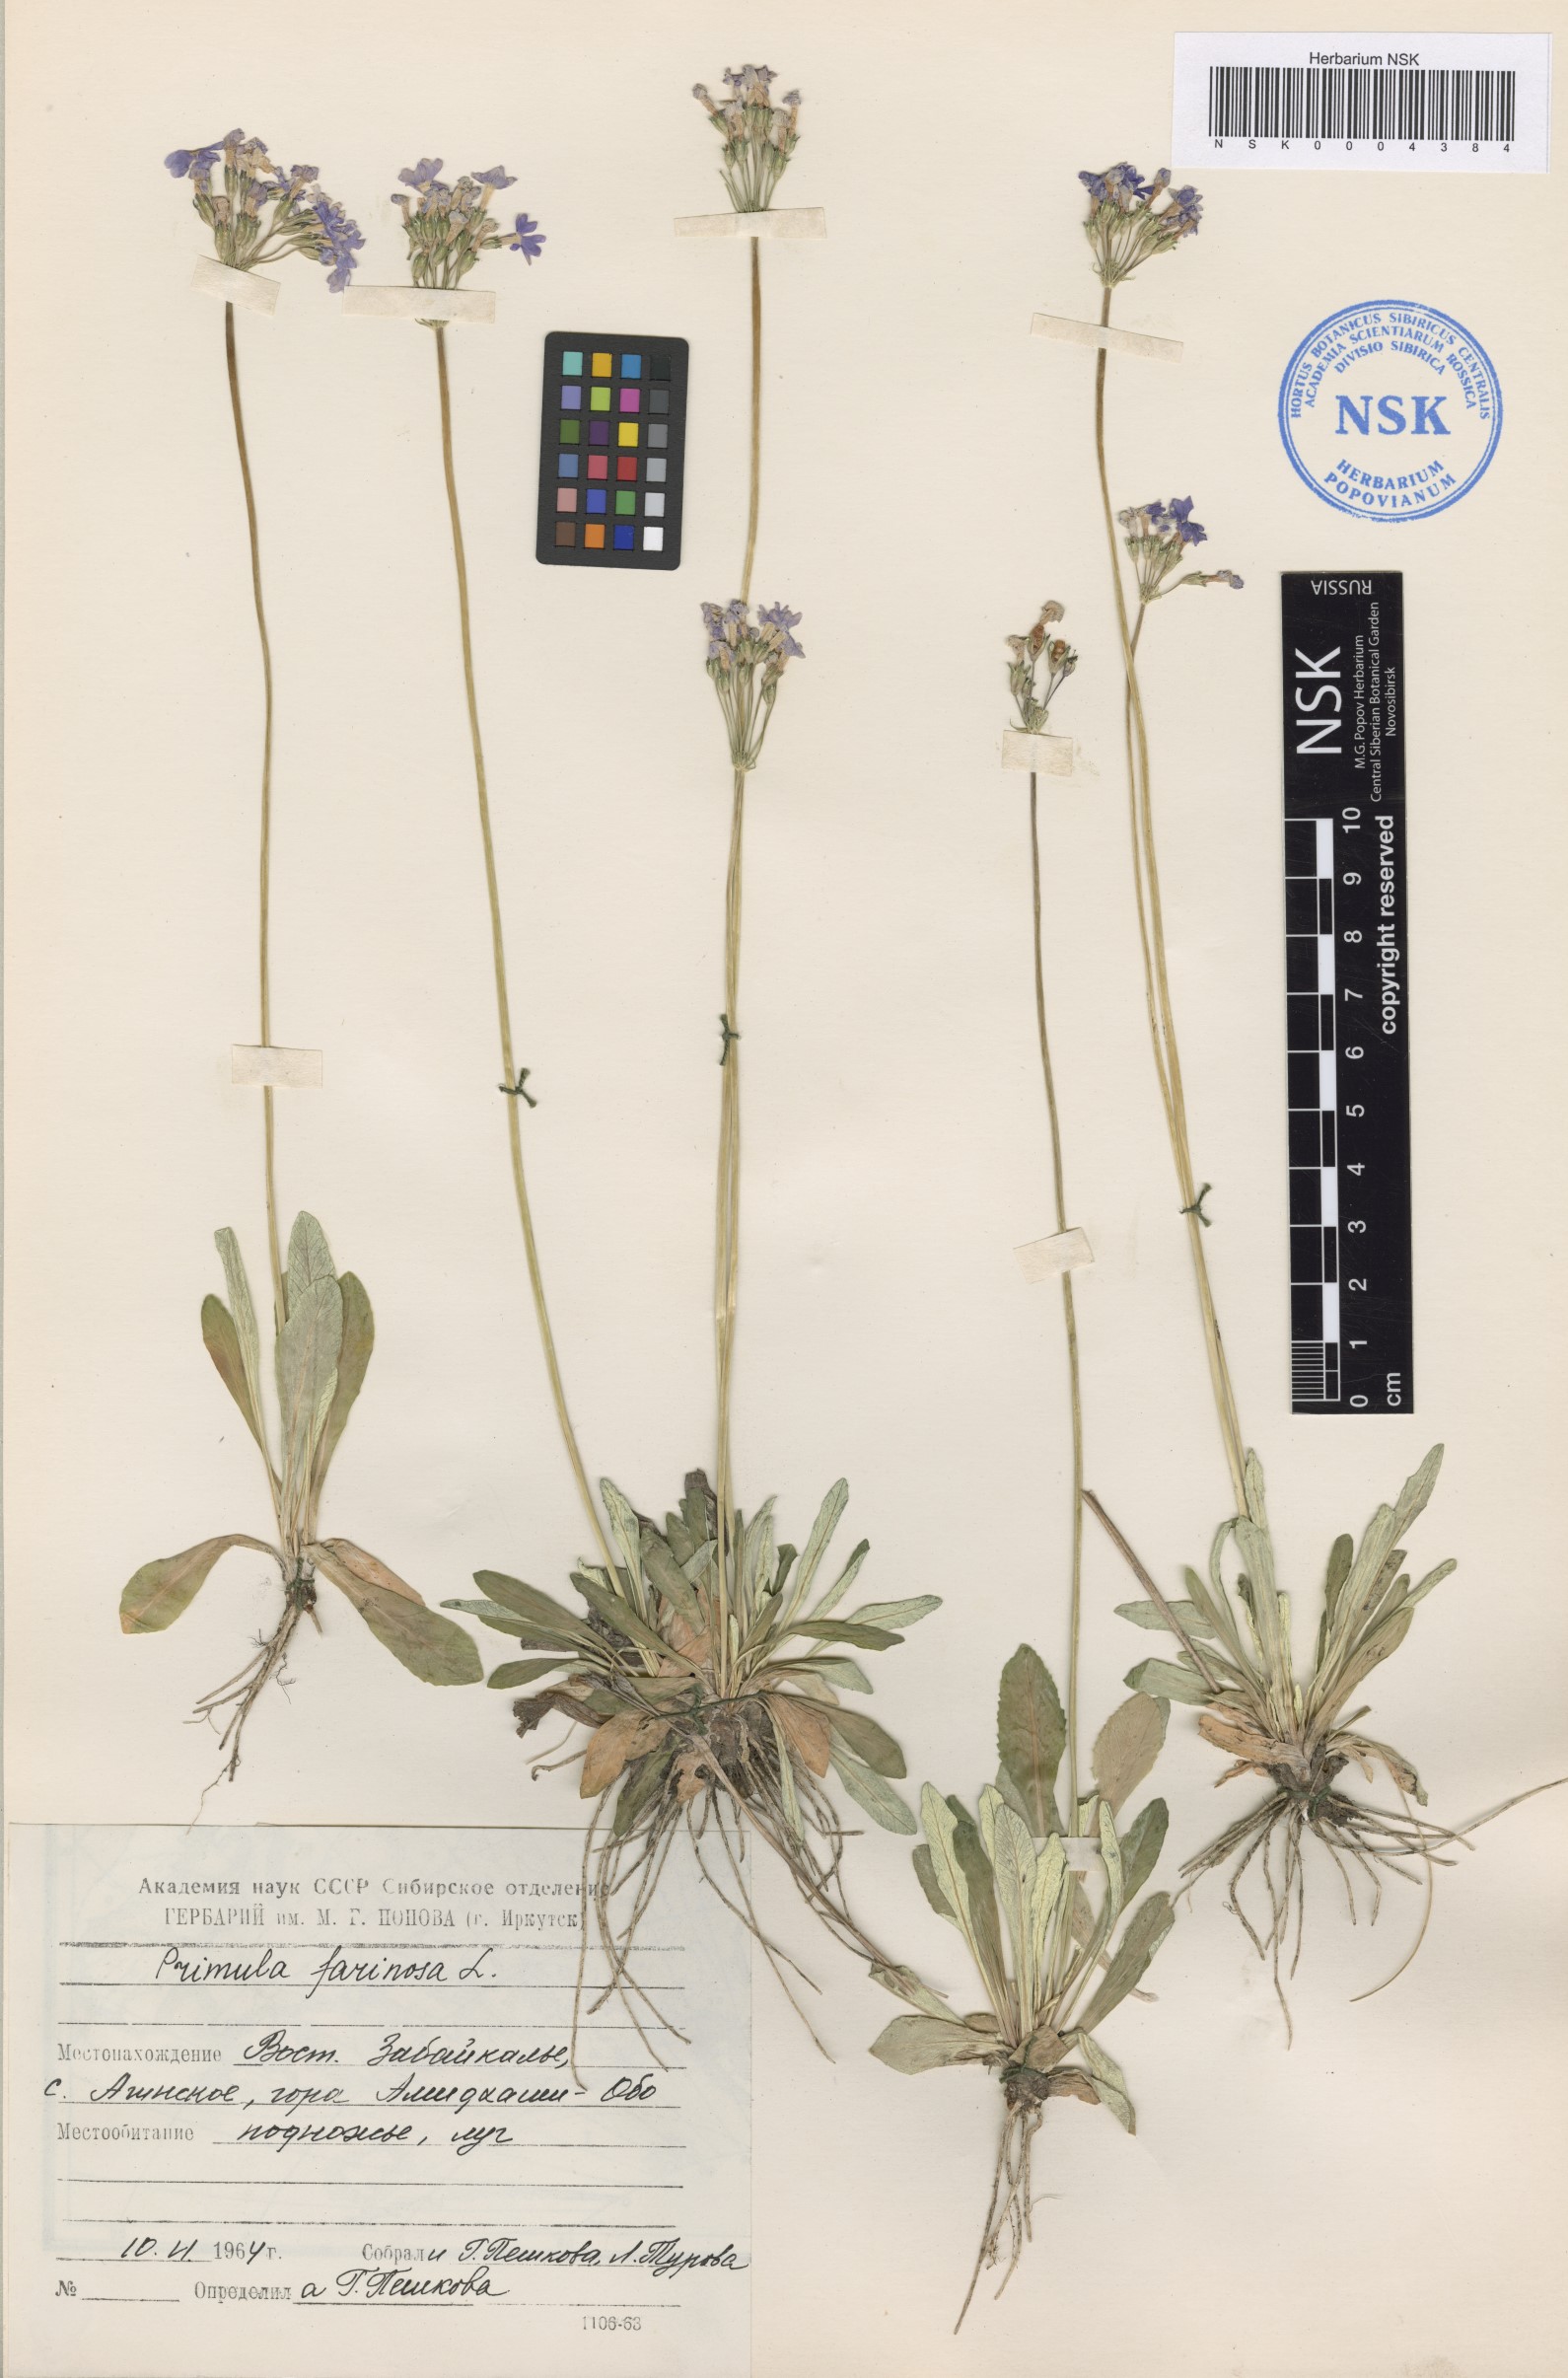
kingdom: Plantae
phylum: Tracheophyta
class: Magnoliopsida
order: Ericales
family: Primulaceae
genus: Primula
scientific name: Primula farinosa
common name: Bird's-eye primrose
